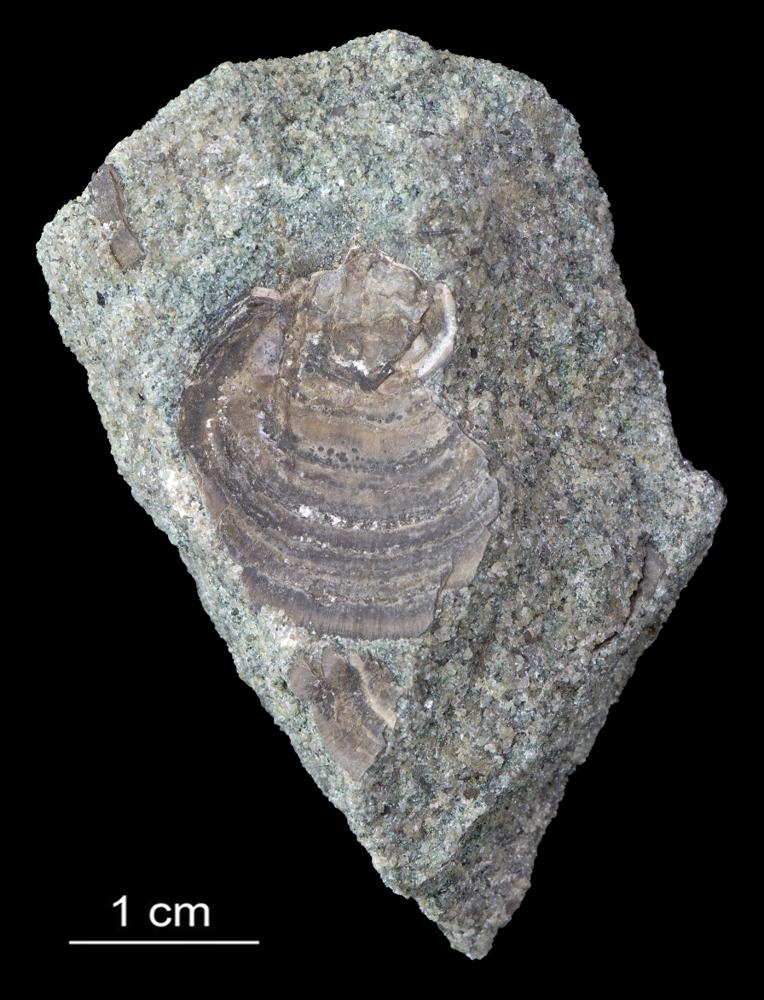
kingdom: Animalia
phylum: Brachiopoda
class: Lingulata
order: Lingulida
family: Zhanatellidae
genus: Thysanotos
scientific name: Thysanotos
